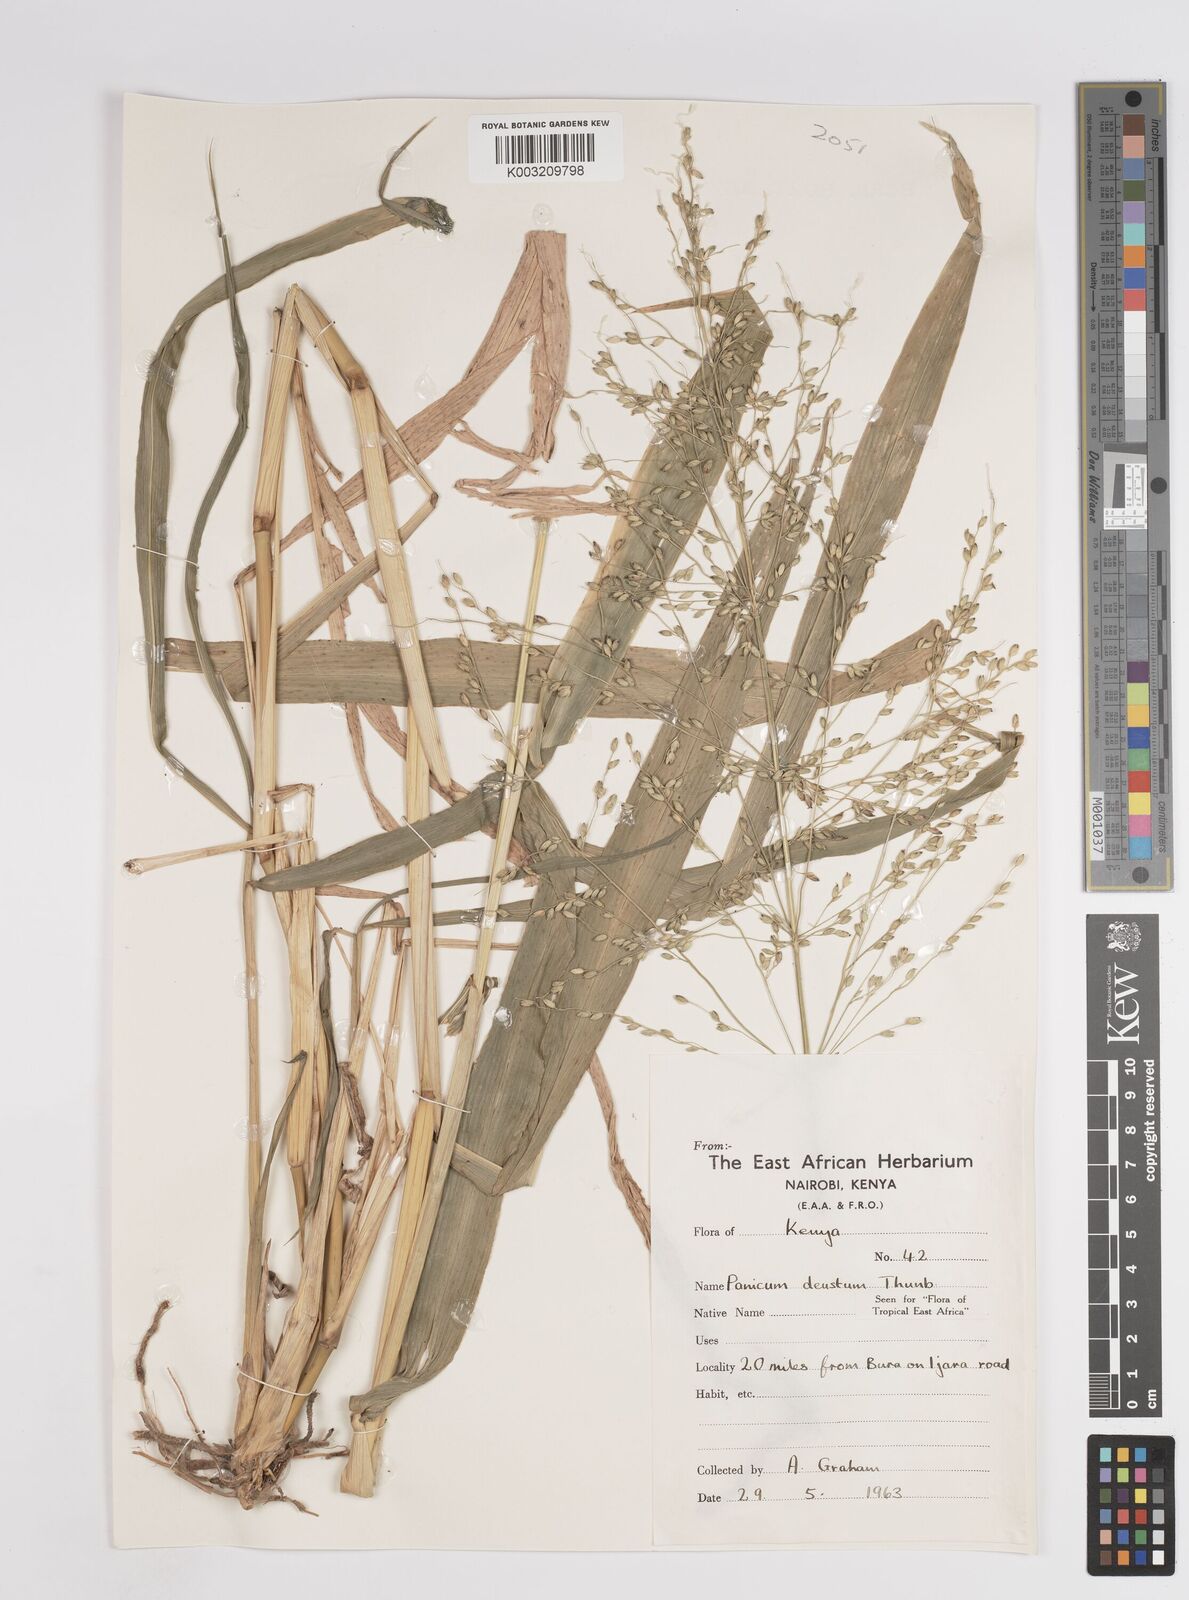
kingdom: Plantae
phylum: Tracheophyta
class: Liliopsida
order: Poales
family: Poaceae
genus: Panicum
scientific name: Panicum deustum
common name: Reed panicum
